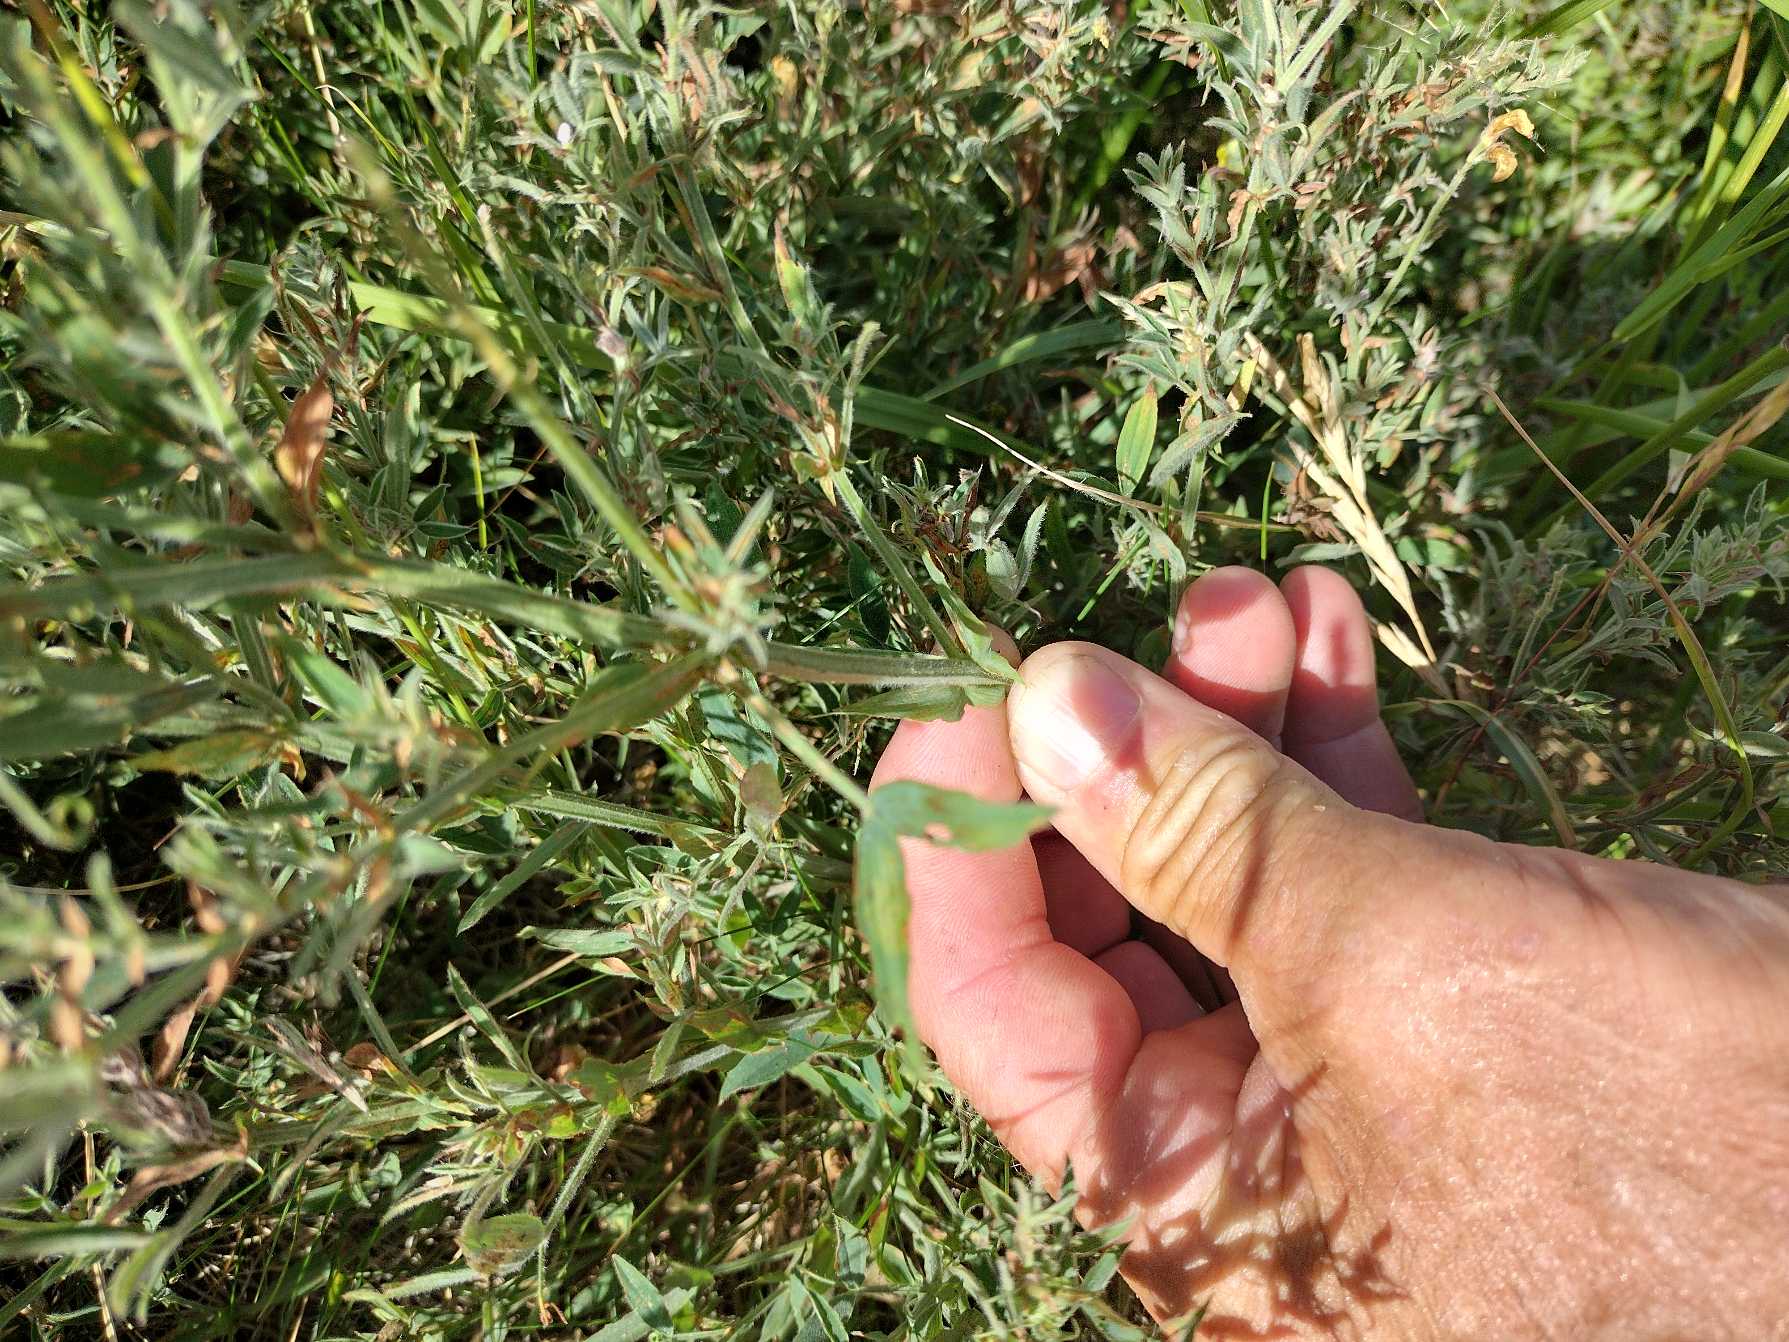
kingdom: Plantae
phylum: Tracheophyta
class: Magnoliopsida
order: Fabales
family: Fabaceae
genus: Lathyrus
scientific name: Lathyrus pratensis
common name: Gul fladbælg
